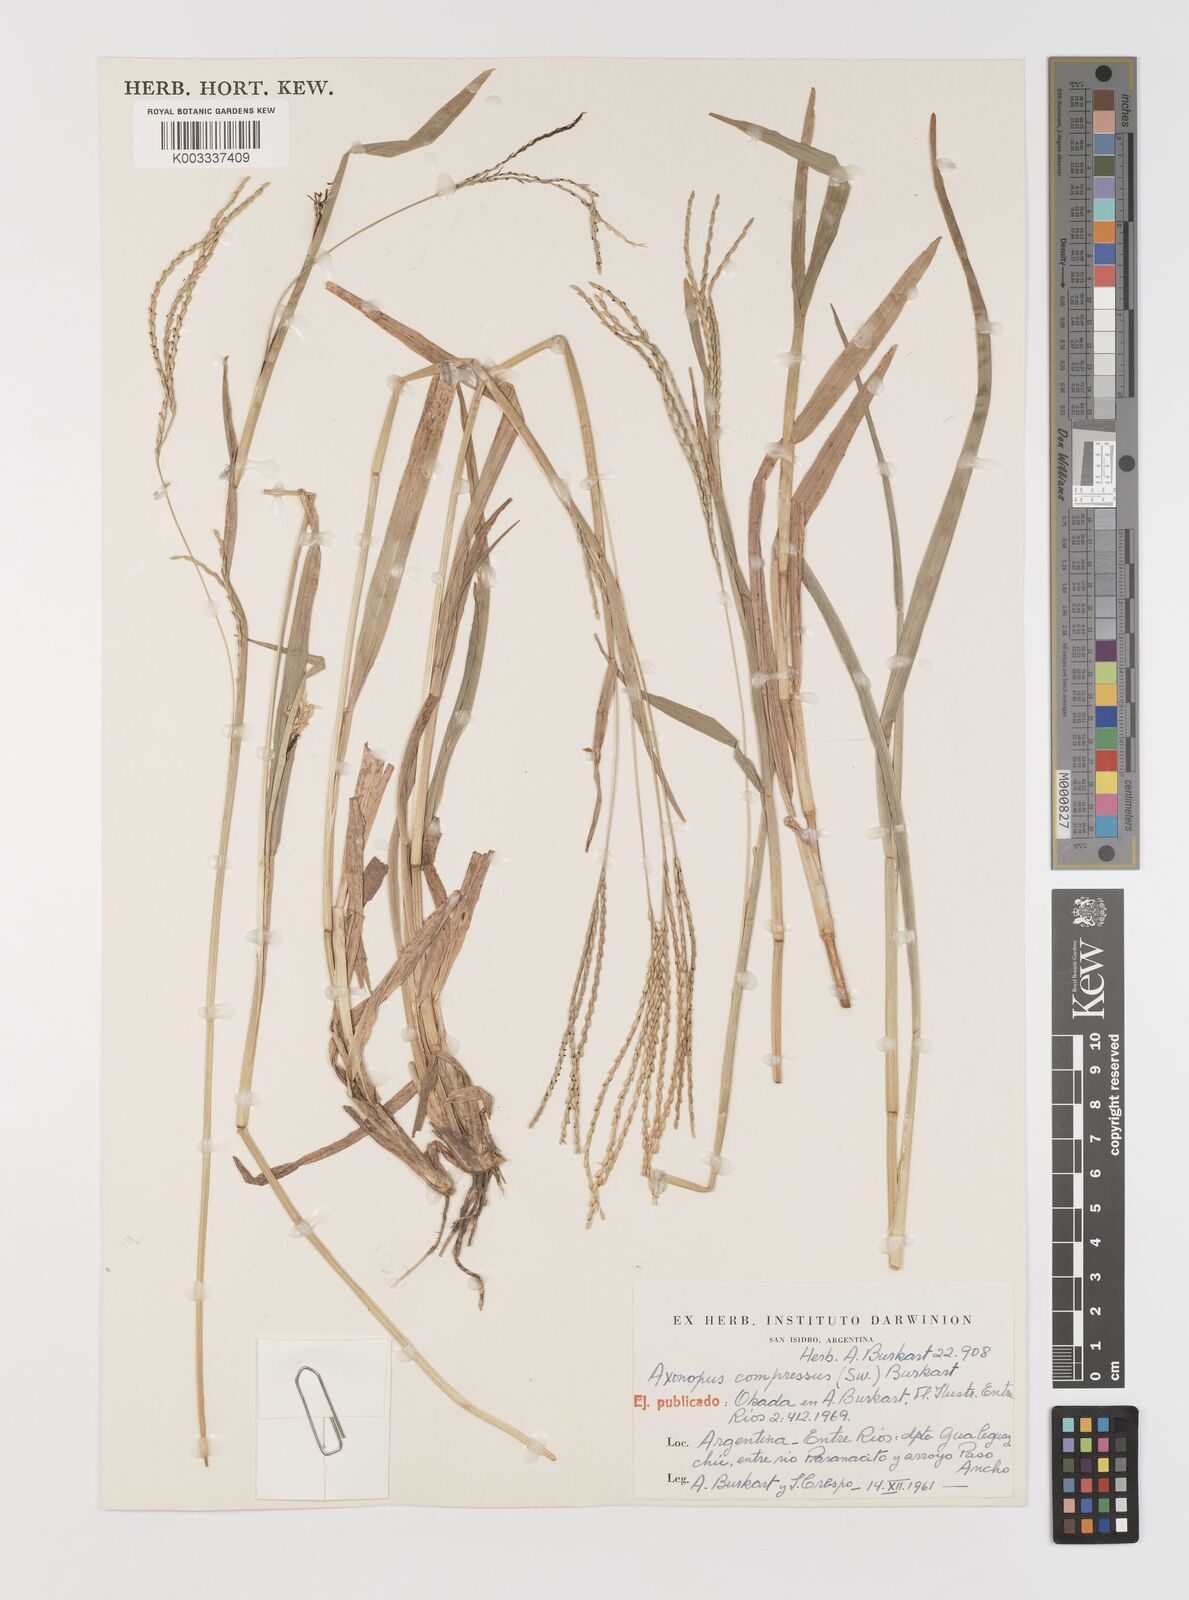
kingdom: Plantae
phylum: Tracheophyta
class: Liliopsida
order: Poales
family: Poaceae
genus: Axonopus
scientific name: Axonopus compressus
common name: American carpet grass
